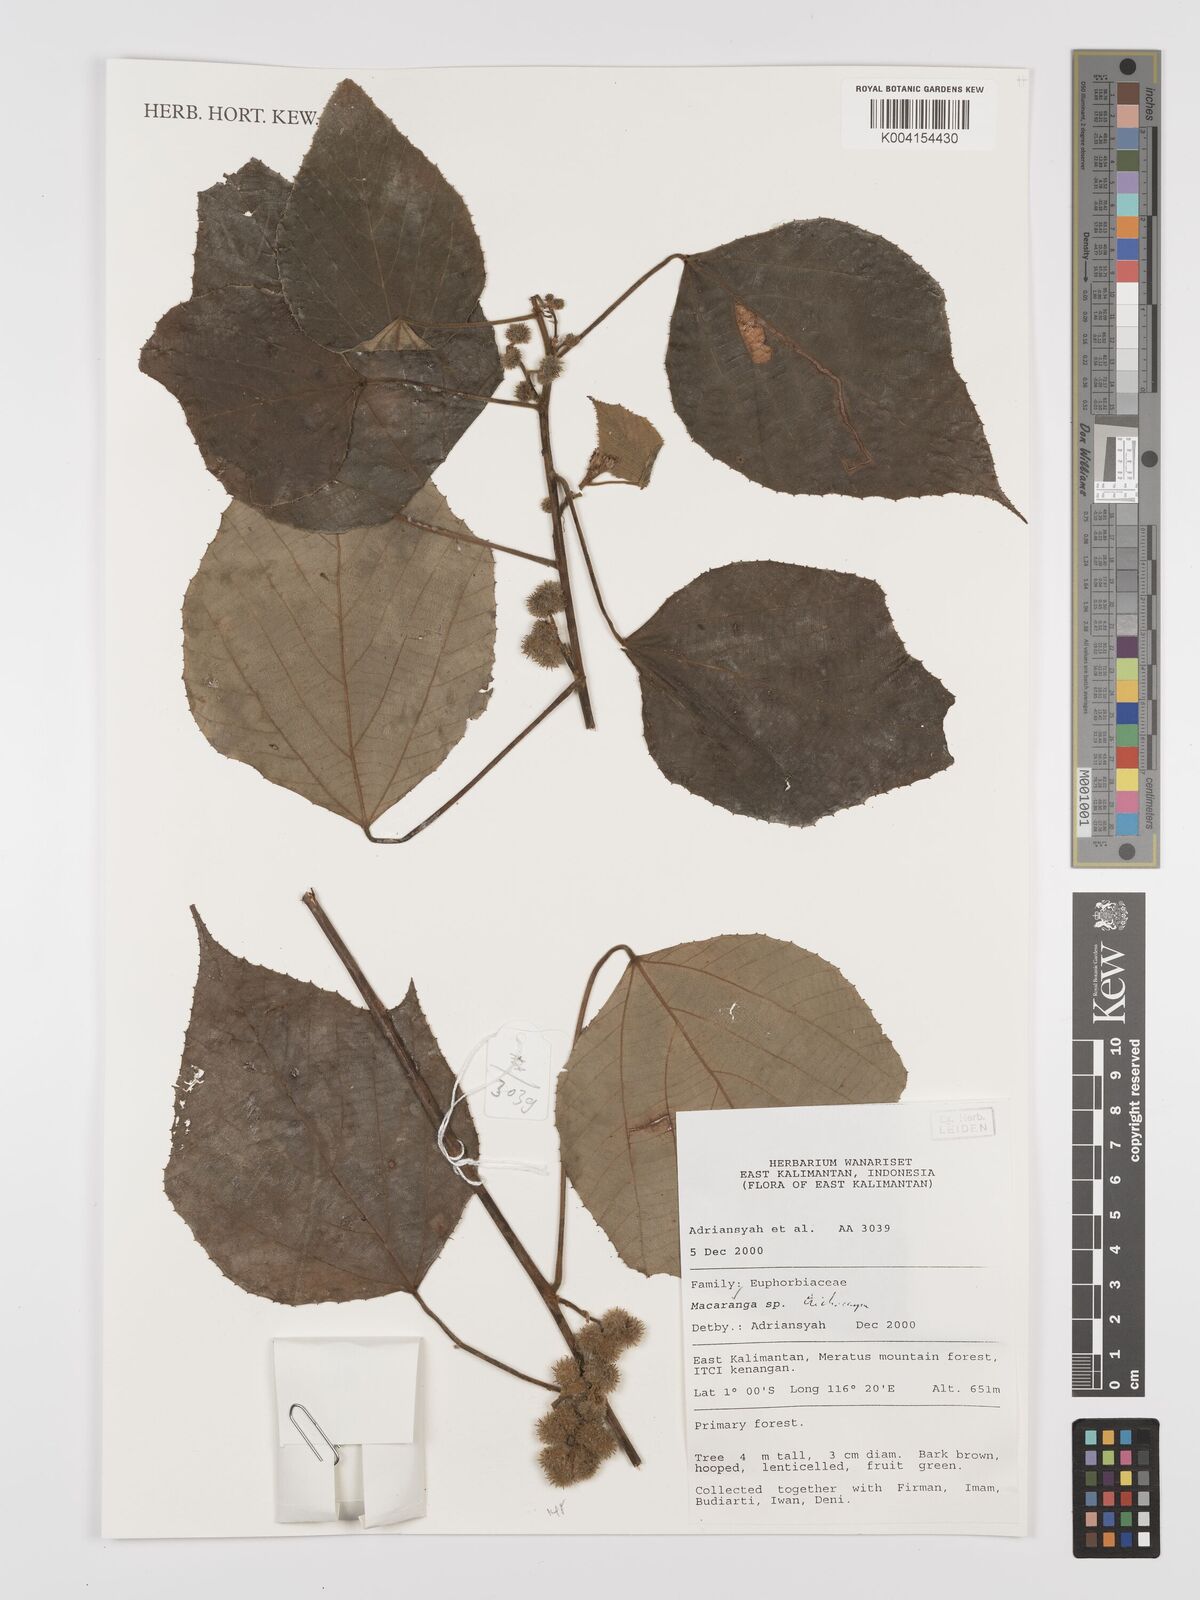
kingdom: Plantae
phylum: Tracheophyta
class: Magnoliopsida
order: Malpighiales
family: Euphorbiaceae
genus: Macaranga
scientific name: Macaranga
